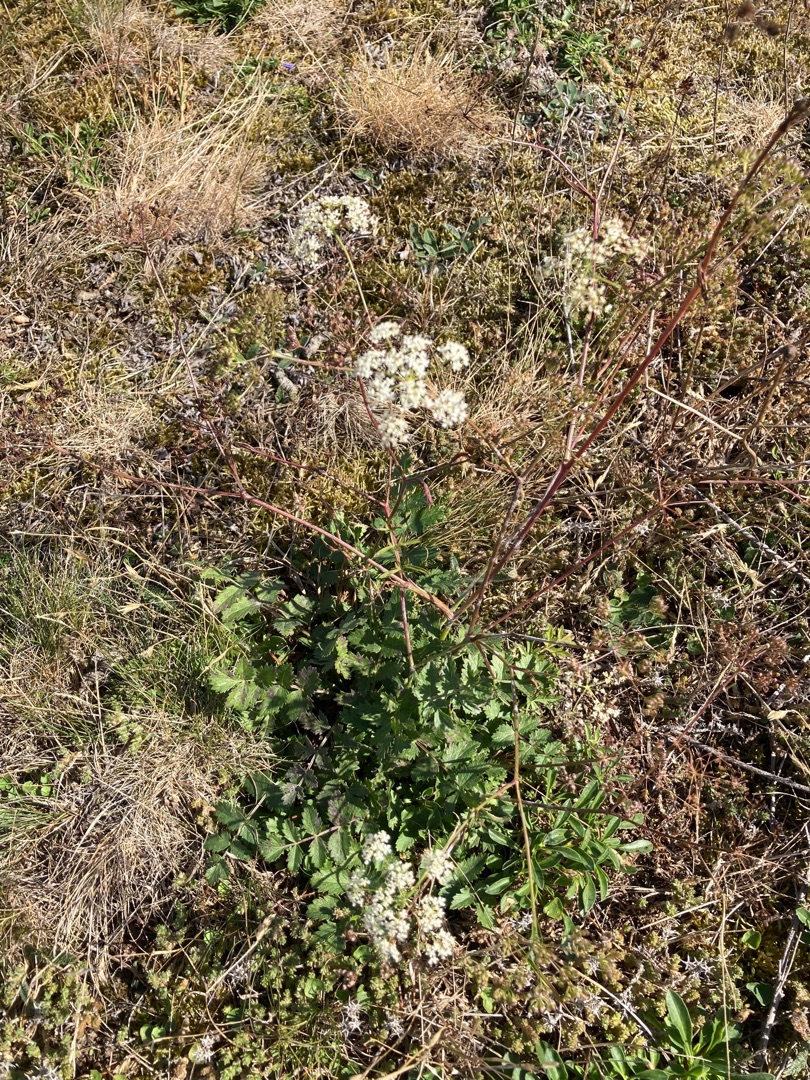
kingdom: Plantae
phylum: Tracheophyta
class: Magnoliopsida
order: Apiales
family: Apiaceae
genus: Pimpinella
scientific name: Pimpinella saxifraga
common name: Almindelig pimpinelle
